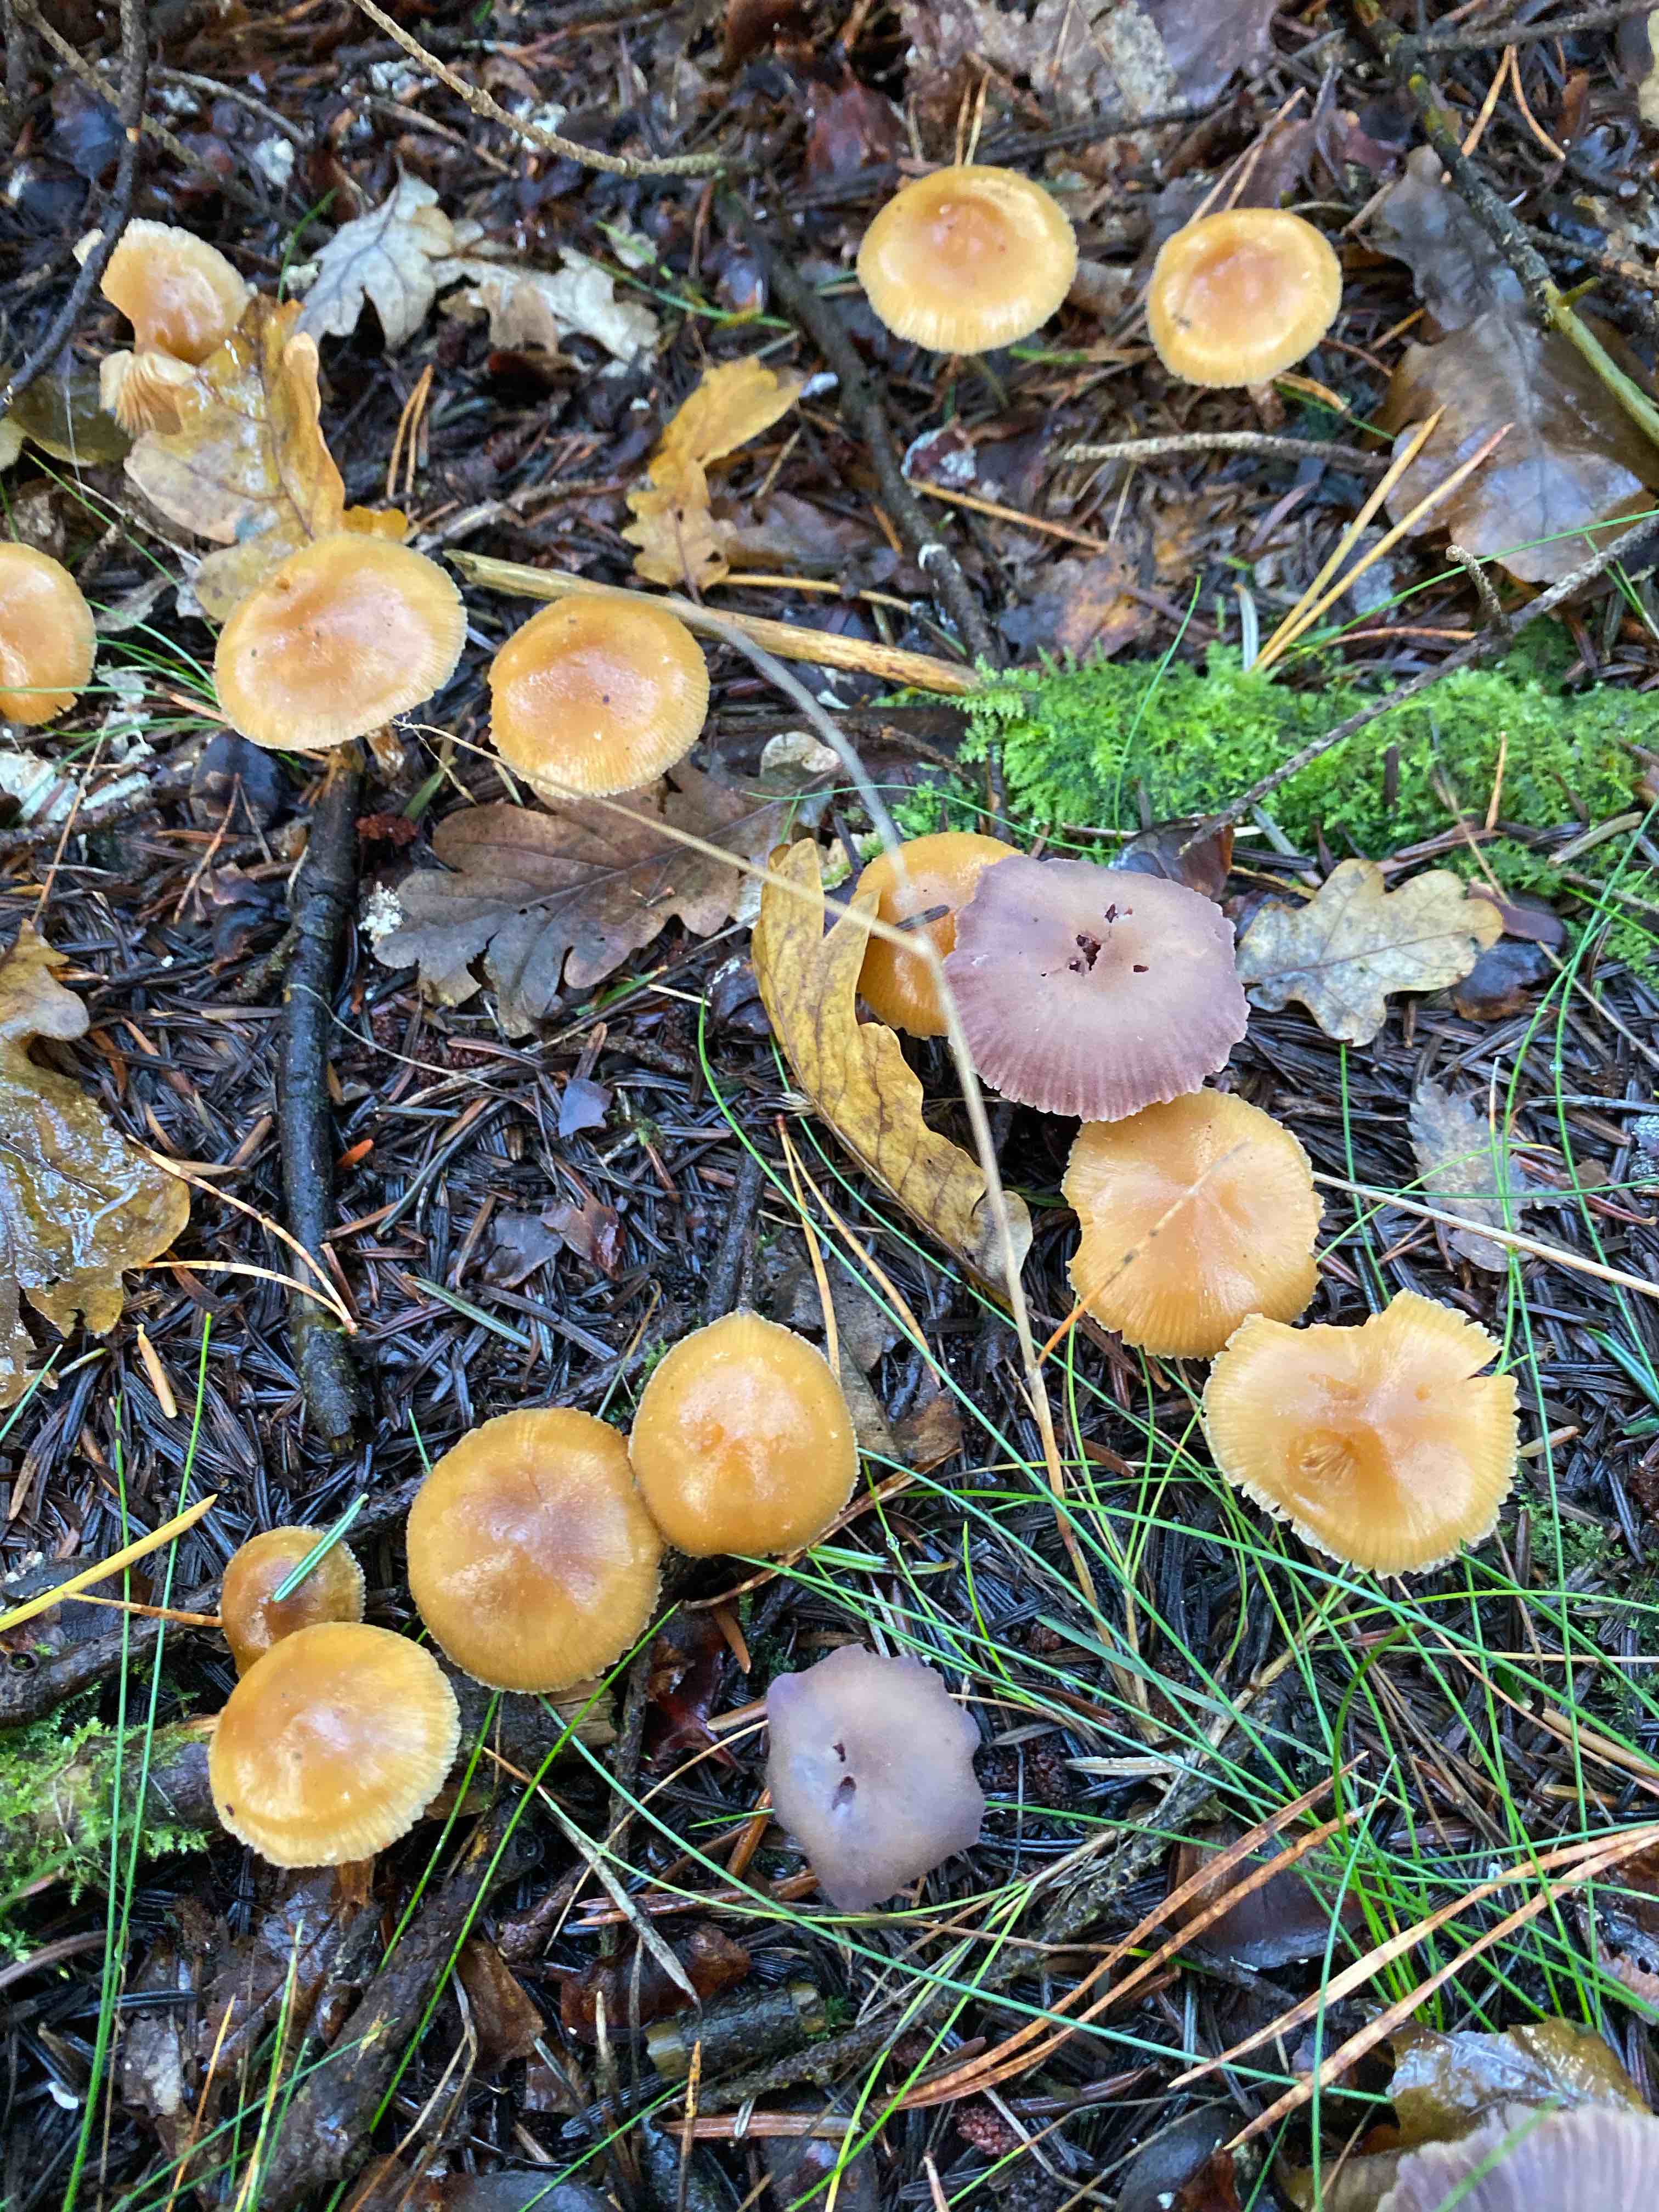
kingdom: Fungi
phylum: Basidiomycota
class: Agaricomycetes
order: Agaricales
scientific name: Agaricales
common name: champignonordenen
